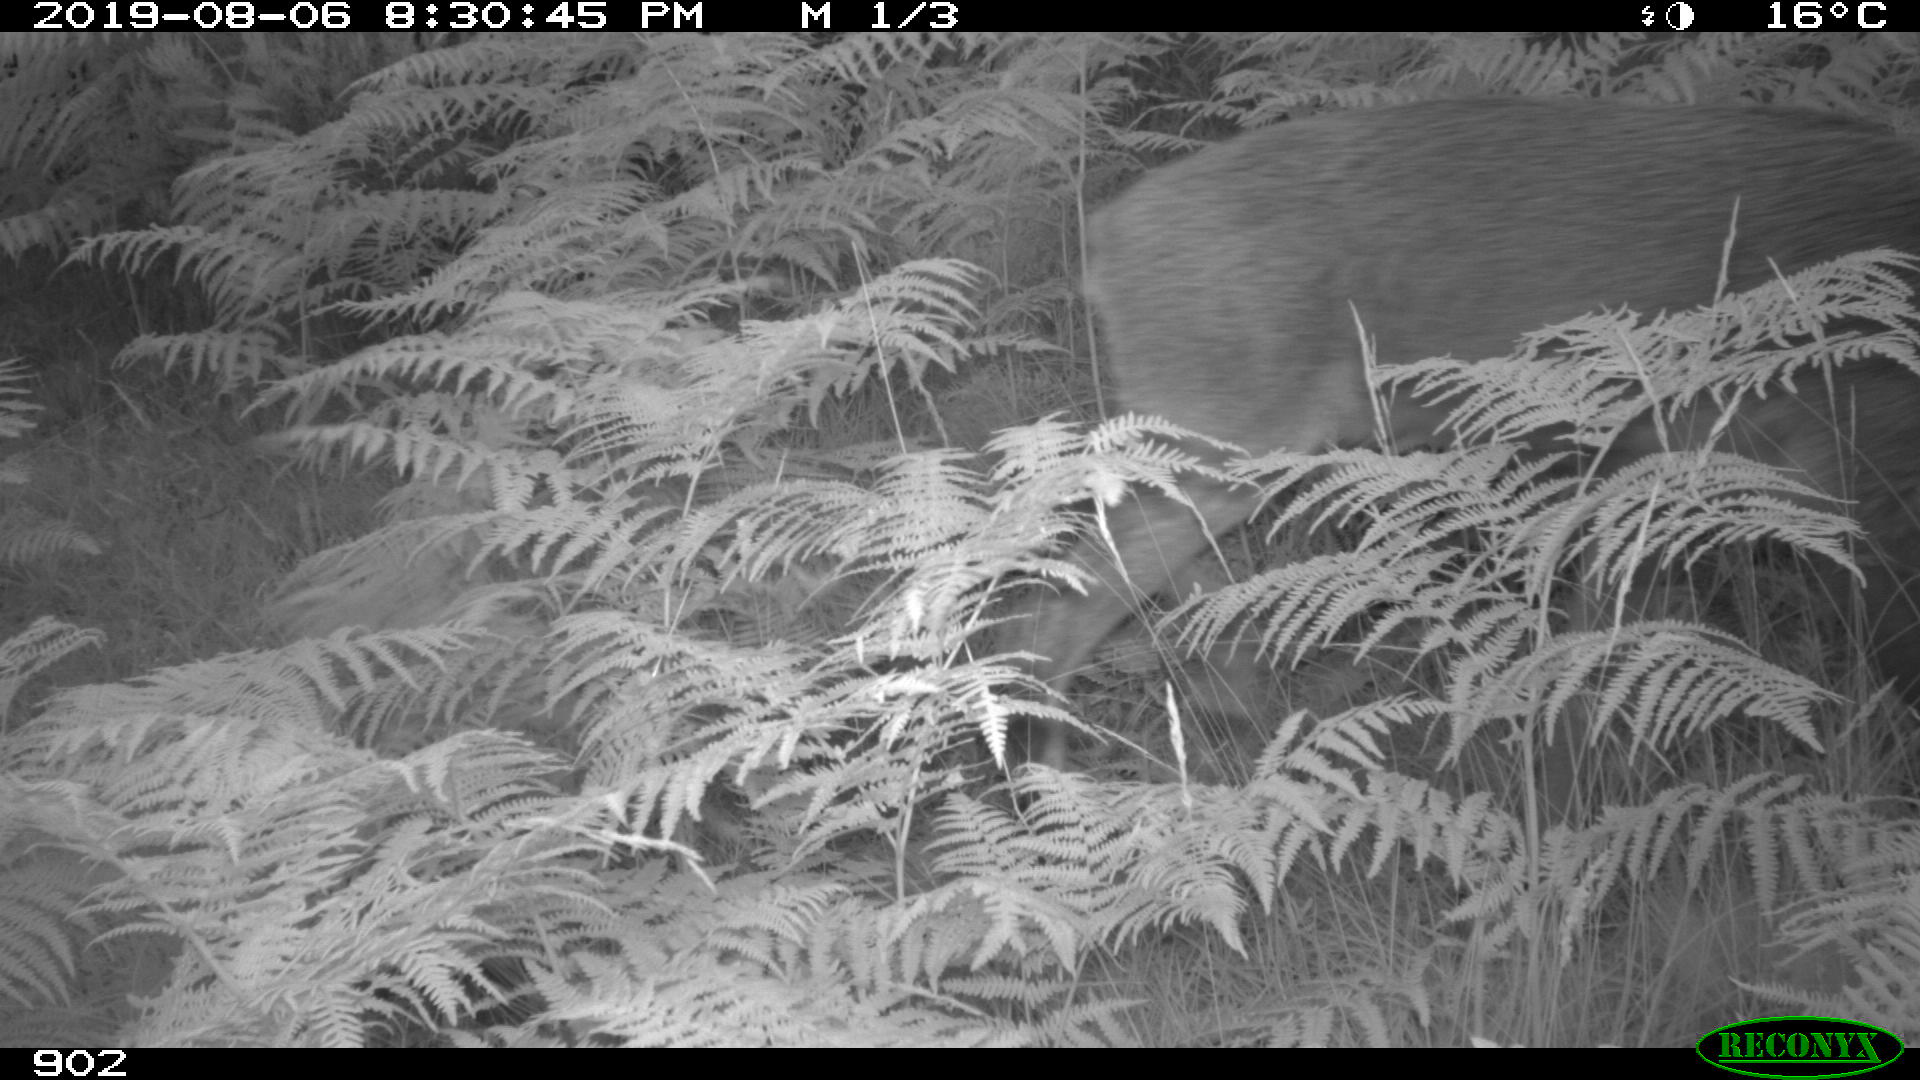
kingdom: Animalia
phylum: Chordata
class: Mammalia
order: Artiodactyla
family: Cervidae
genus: Capreolus
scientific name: Capreolus capreolus
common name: Western roe deer
